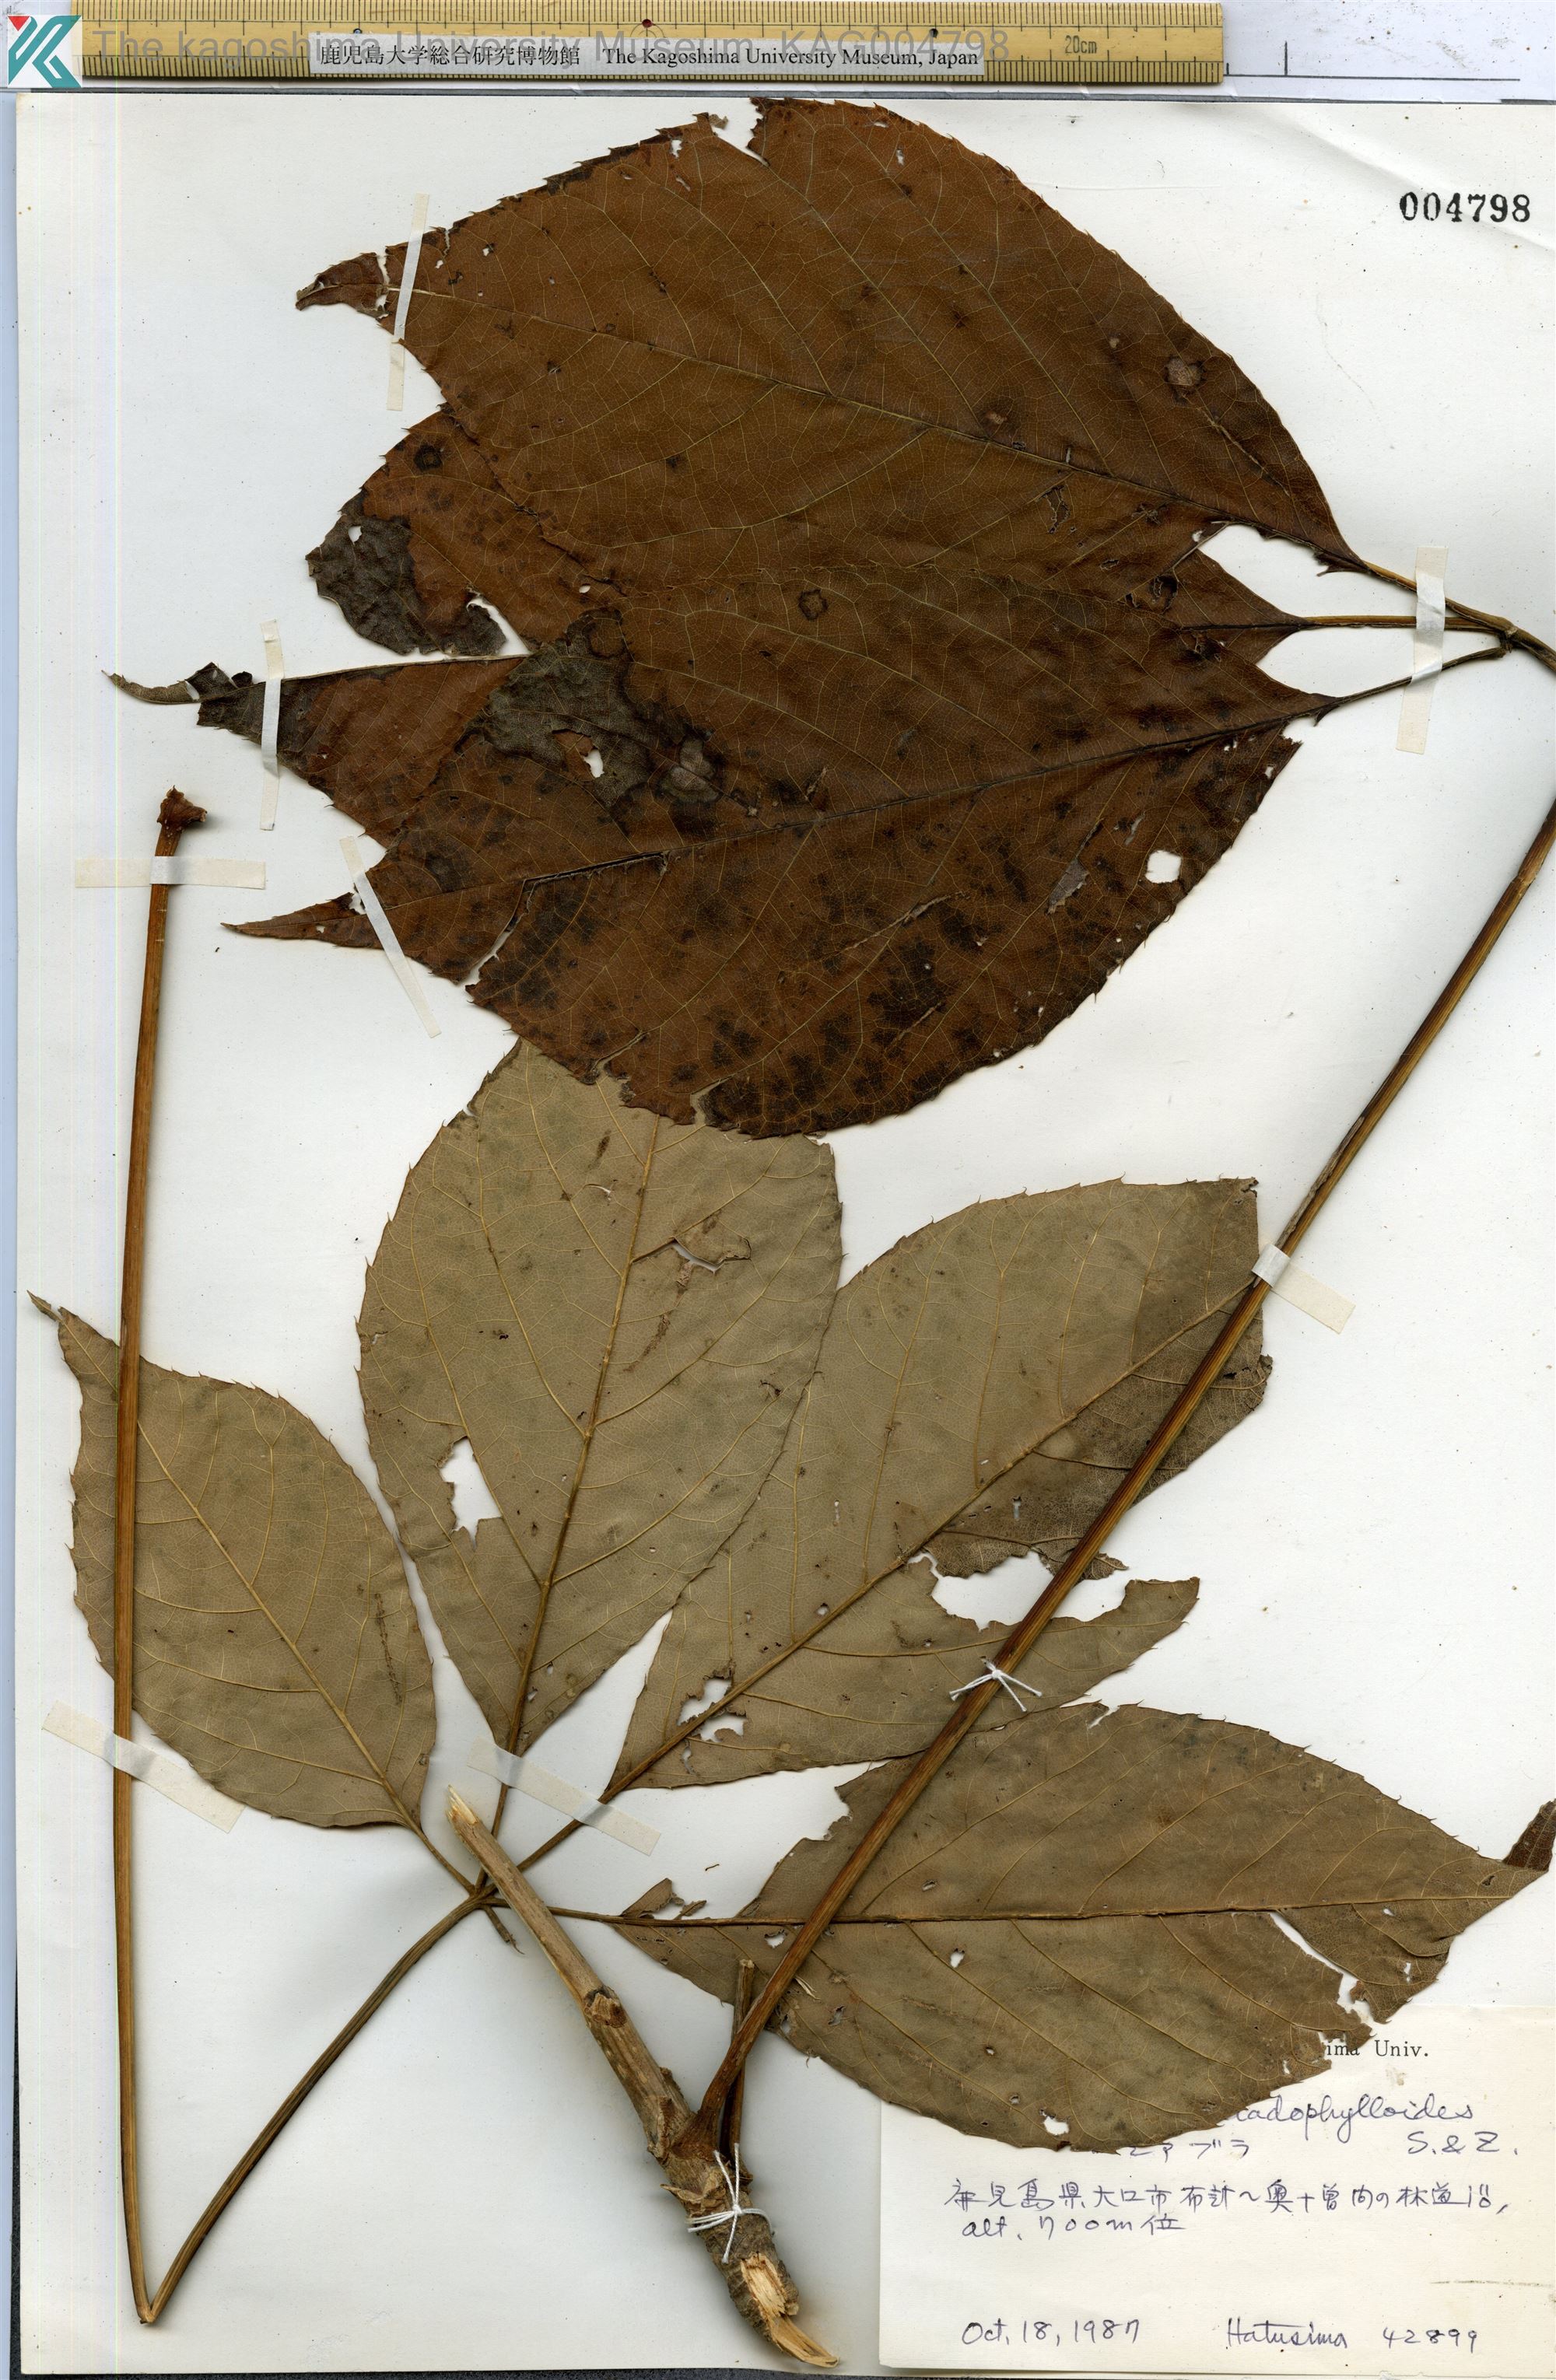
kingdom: Plantae
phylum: Tracheophyta
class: Magnoliopsida
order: Apiales
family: Araliaceae
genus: Chengiopanax
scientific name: Chengiopanax sciadophylloides
